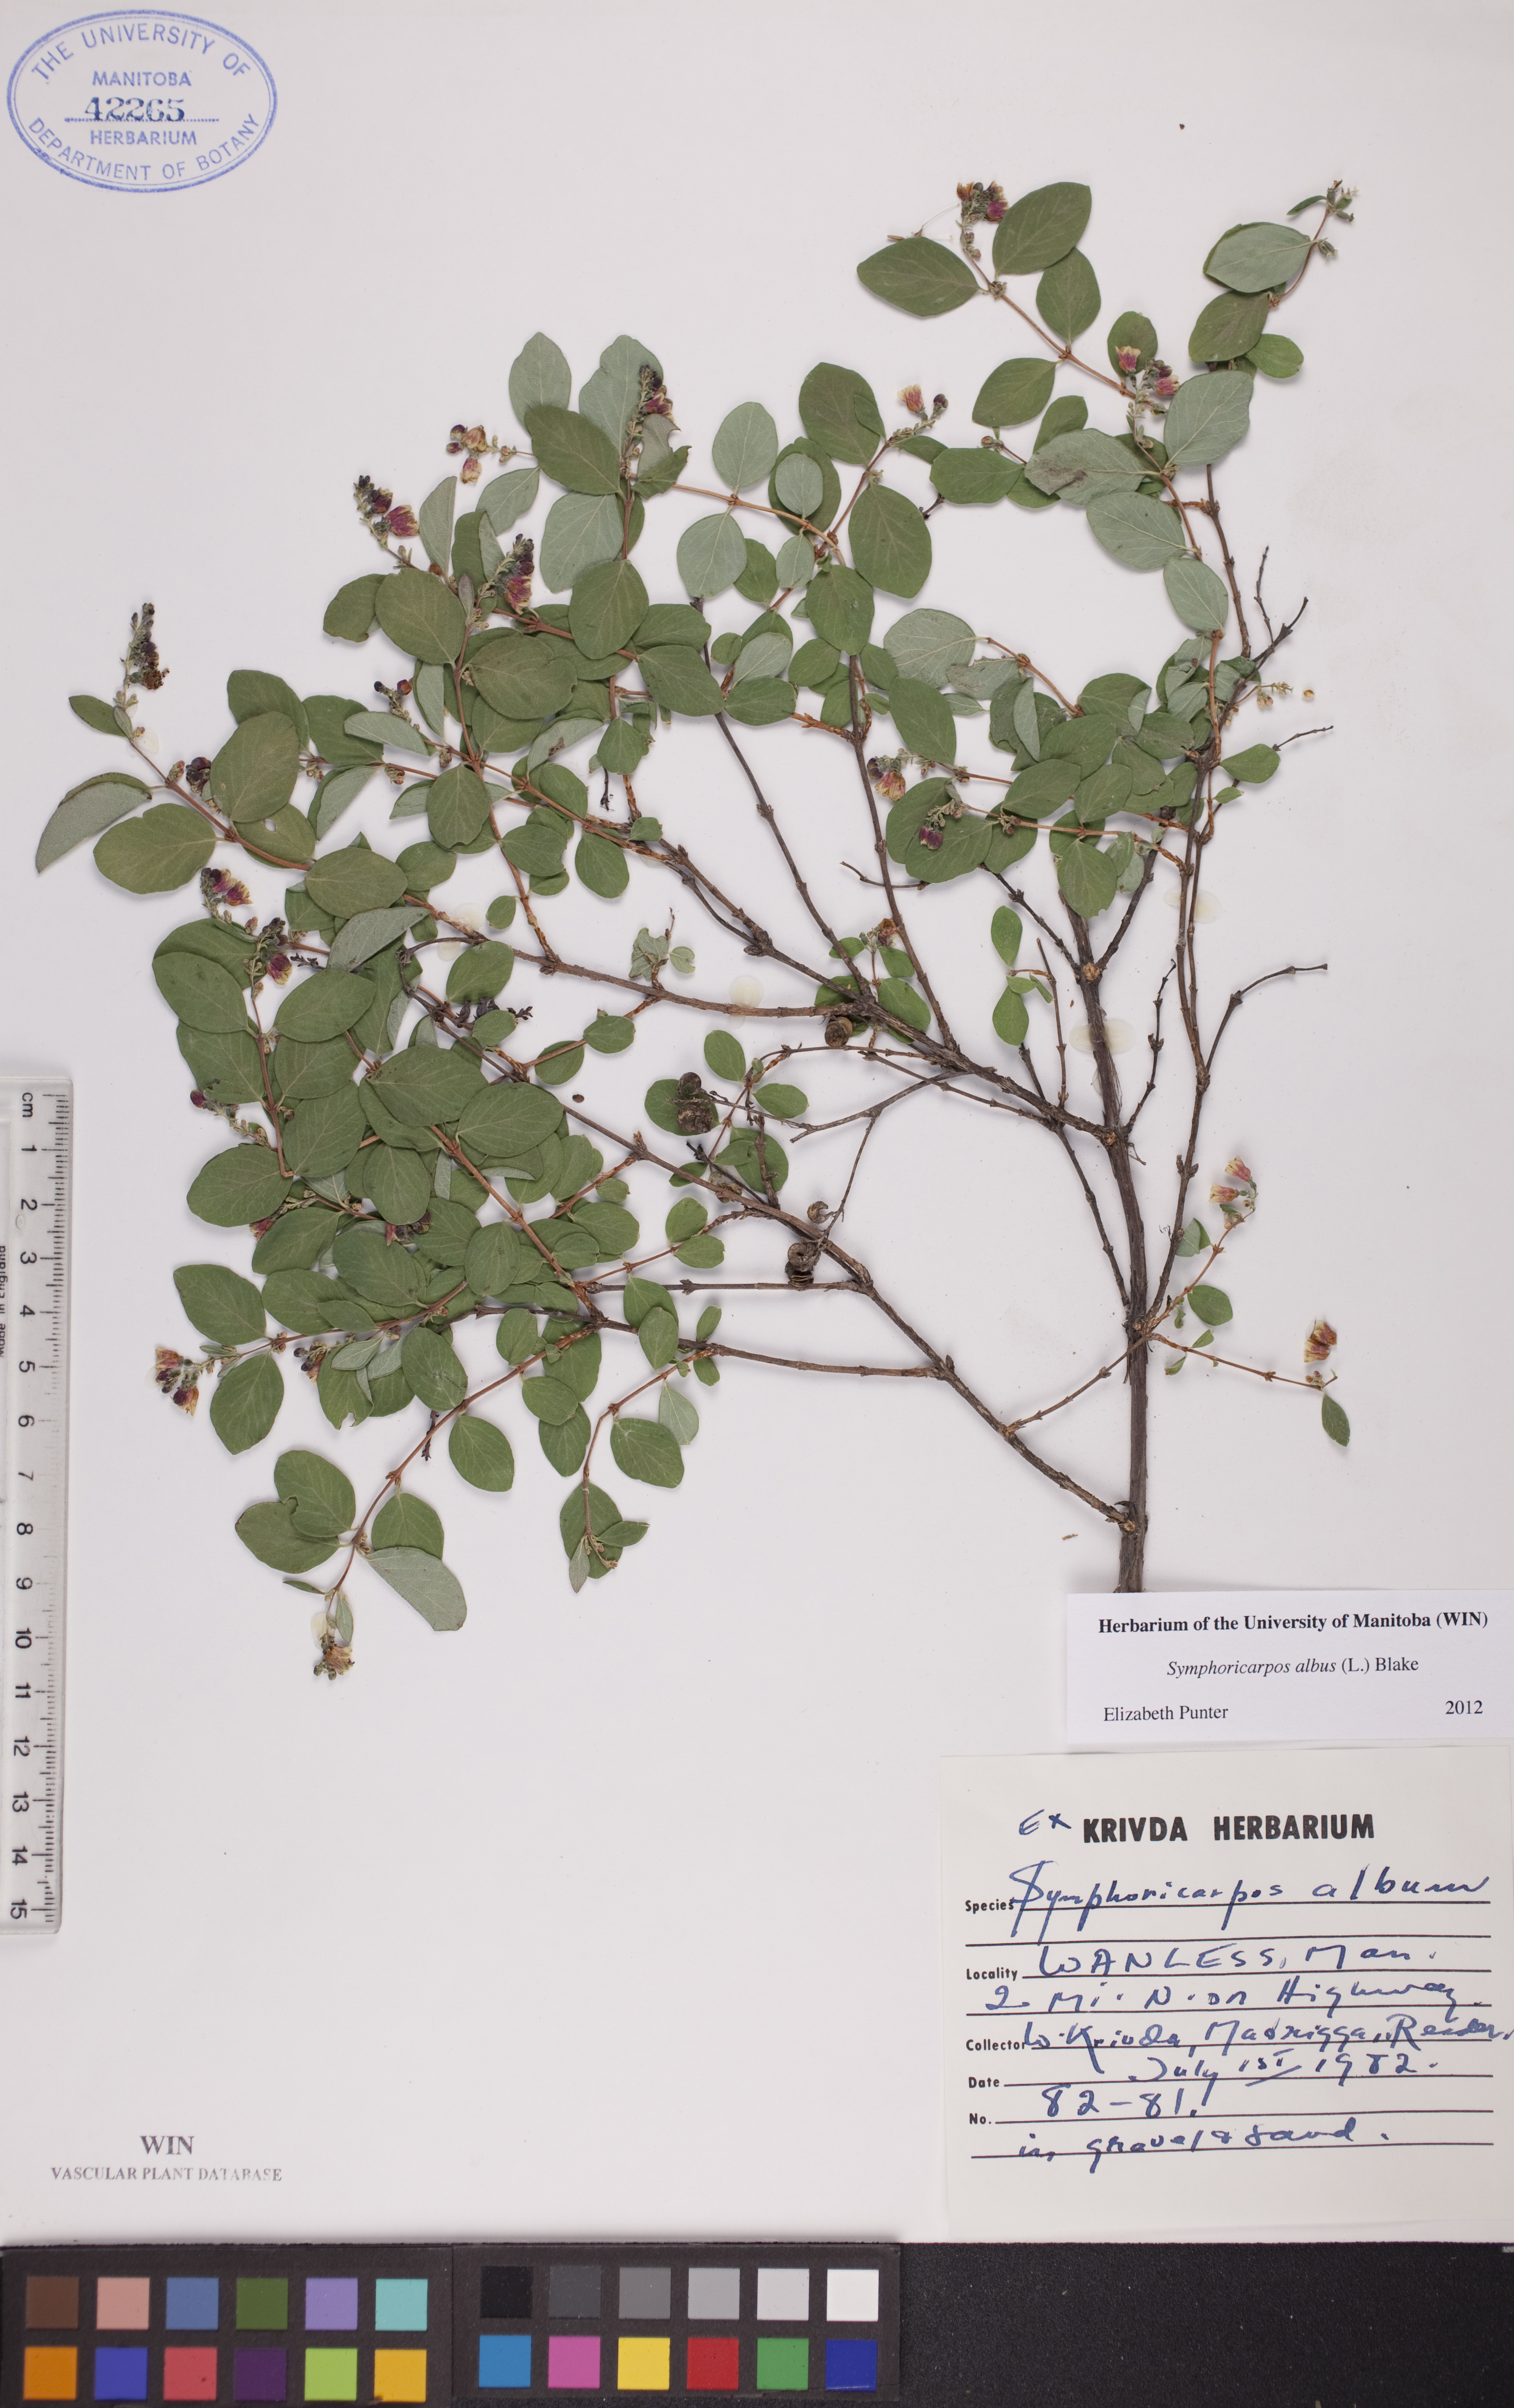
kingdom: Plantae
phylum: Tracheophyta
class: Magnoliopsida
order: Dipsacales
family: Caprifoliaceae
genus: Symphoricarpos
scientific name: Symphoricarpos albus
